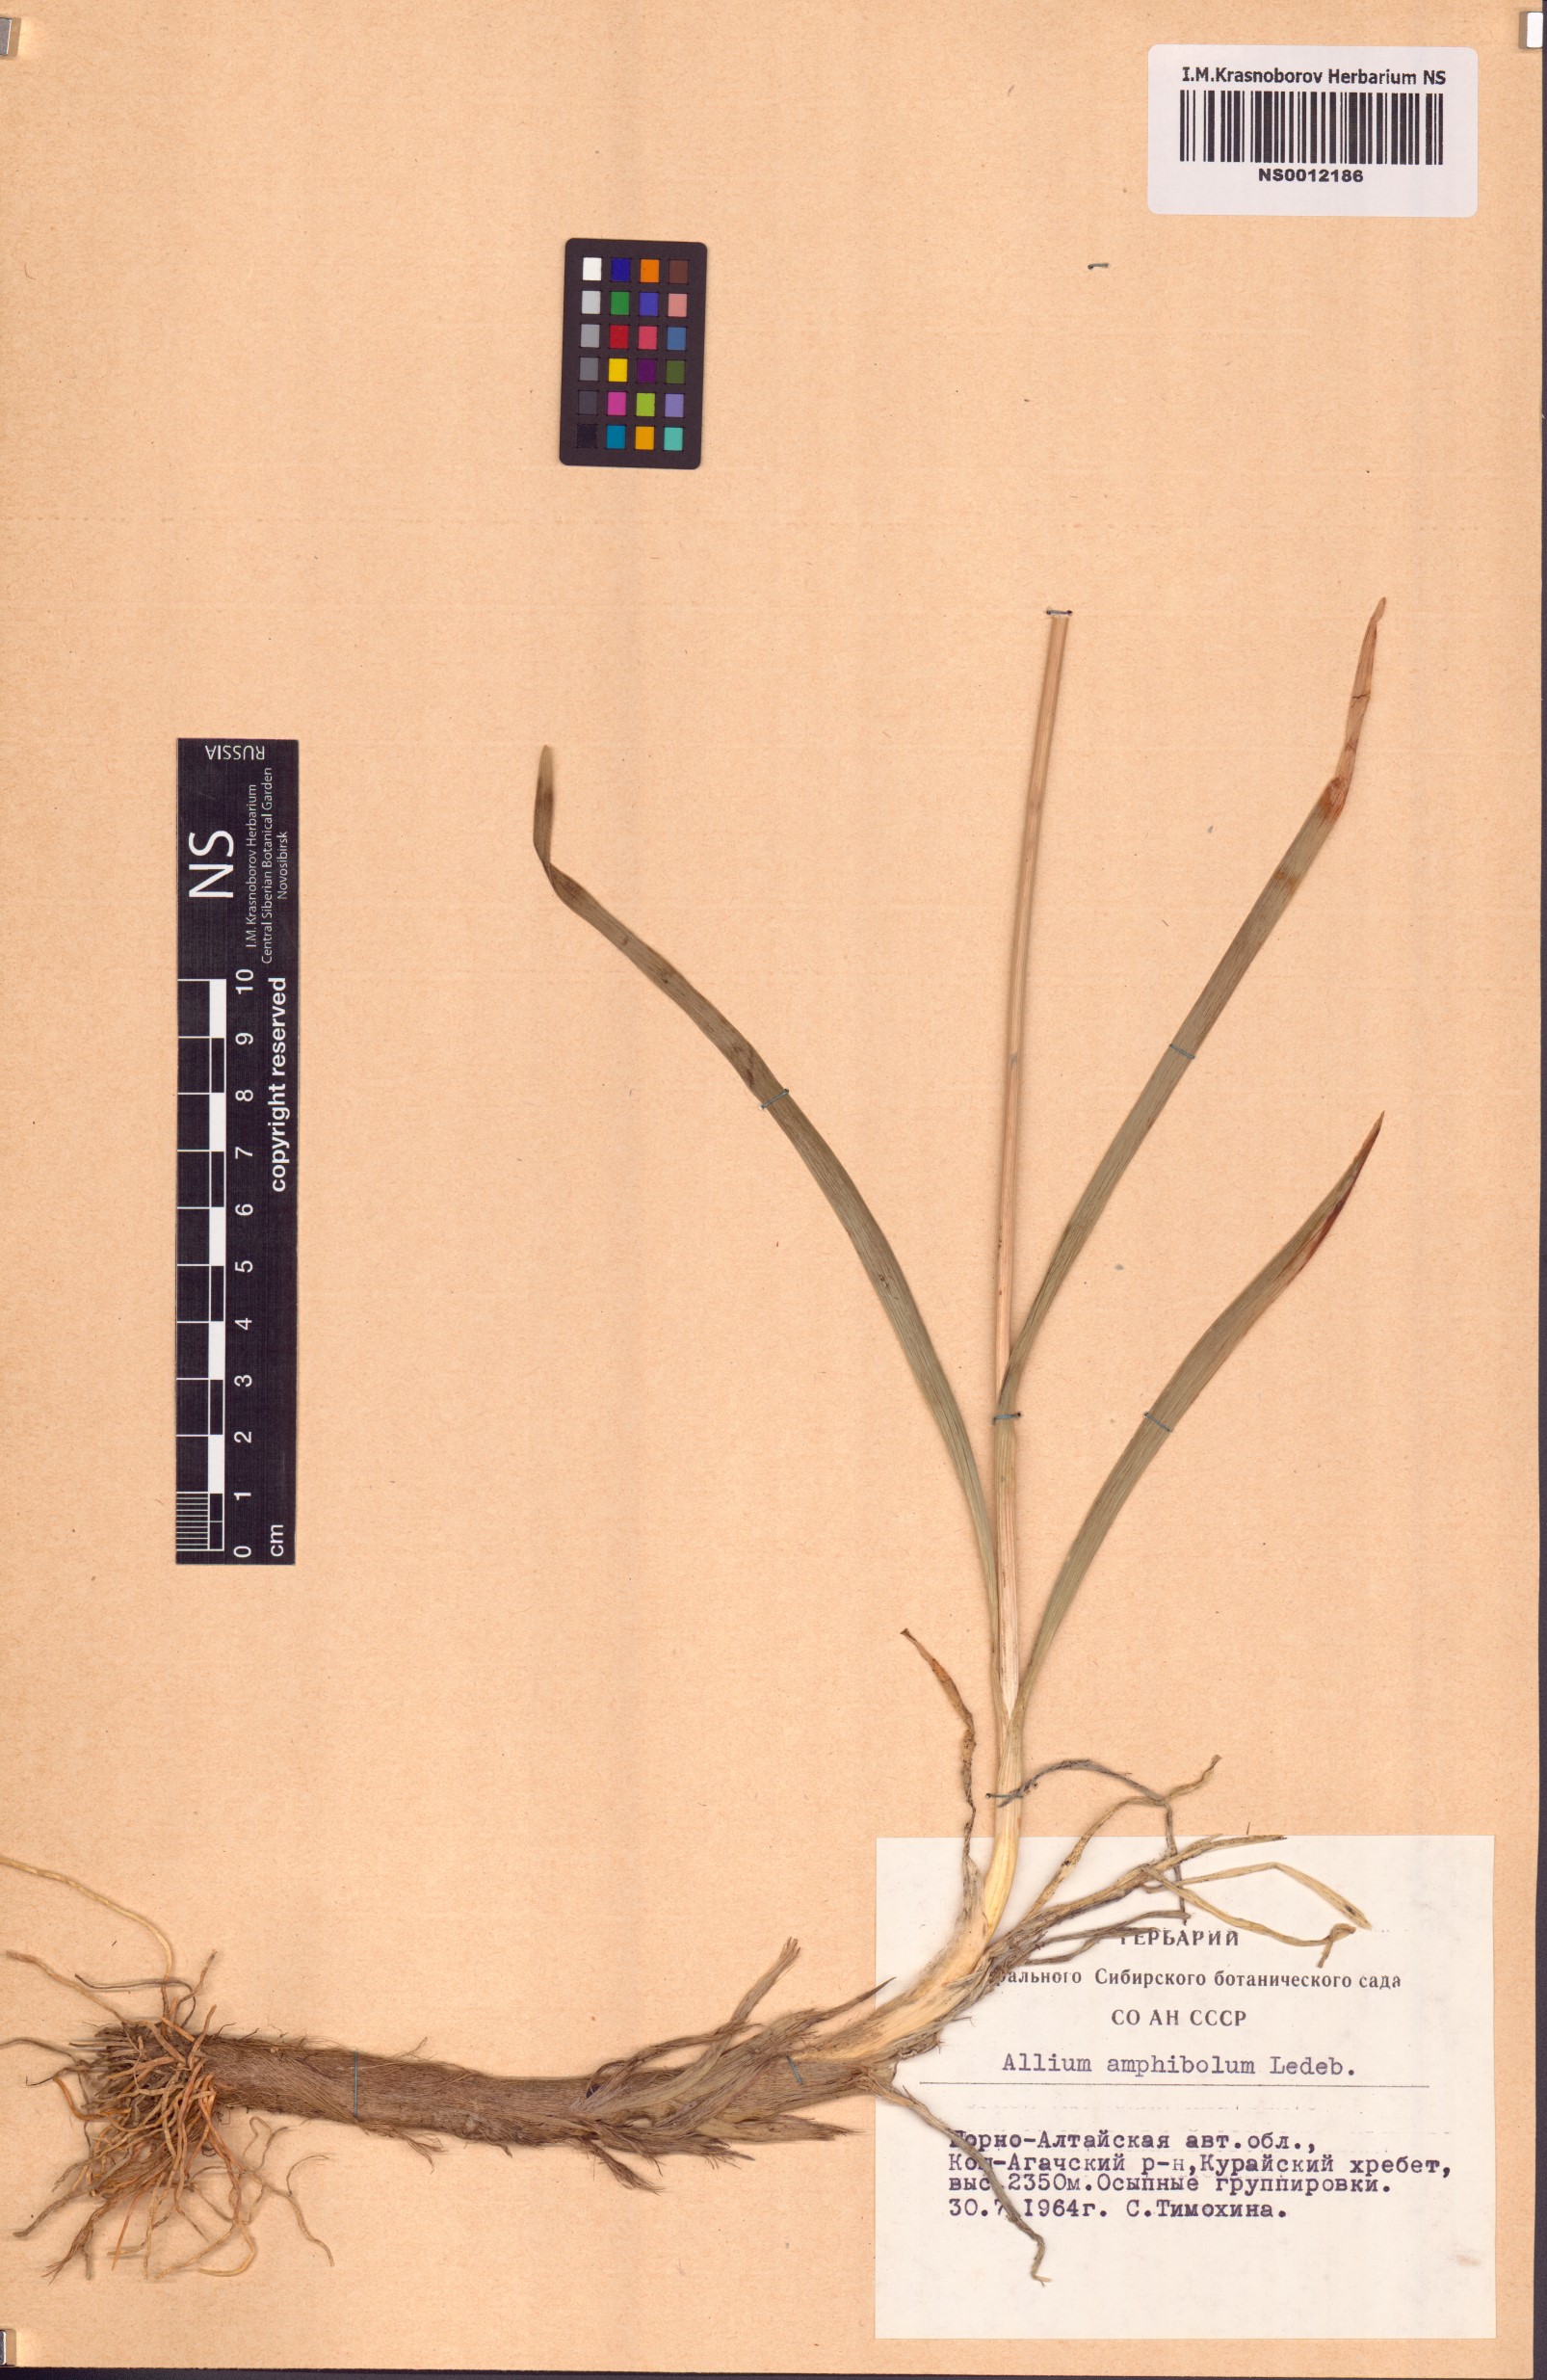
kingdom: Plantae
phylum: Tracheophyta
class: Liliopsida
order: Asparagales
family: Amaryllidaceae
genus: Allium
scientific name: Allium amphibolum
